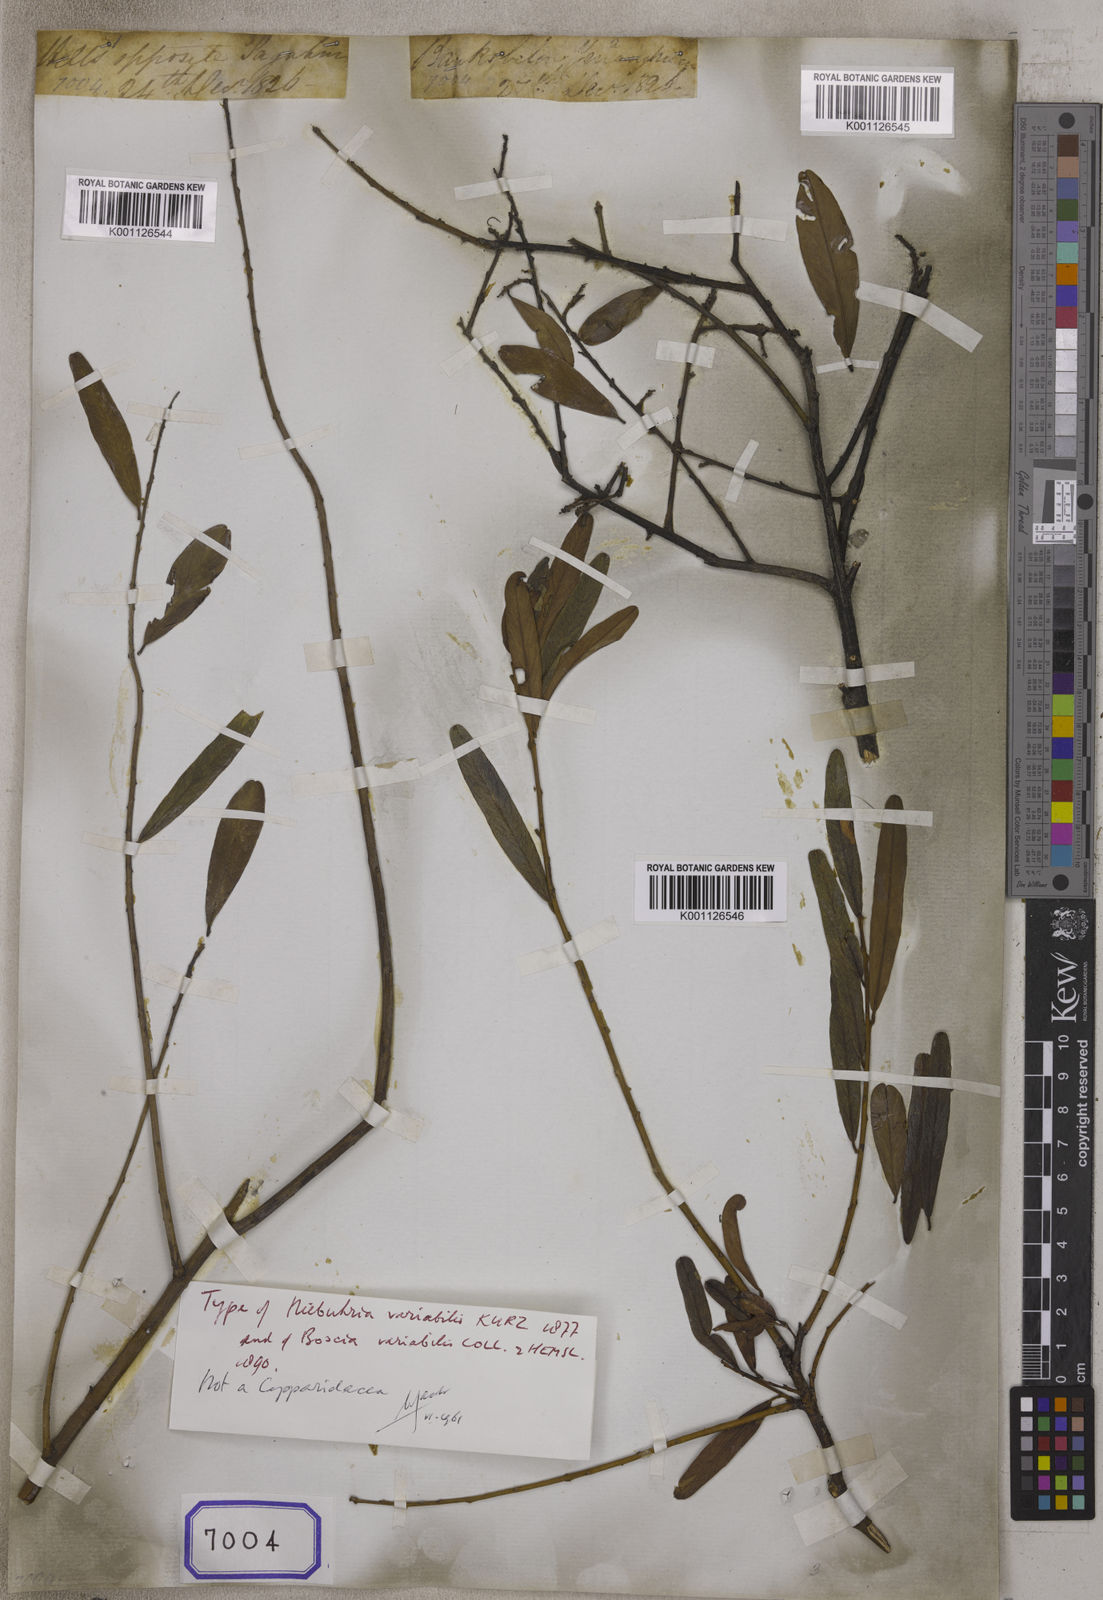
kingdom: Plantae
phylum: Tracheophyta
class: Magnoliopsida
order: Brassicales
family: Capparaceae
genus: Capparis
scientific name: Capparis
